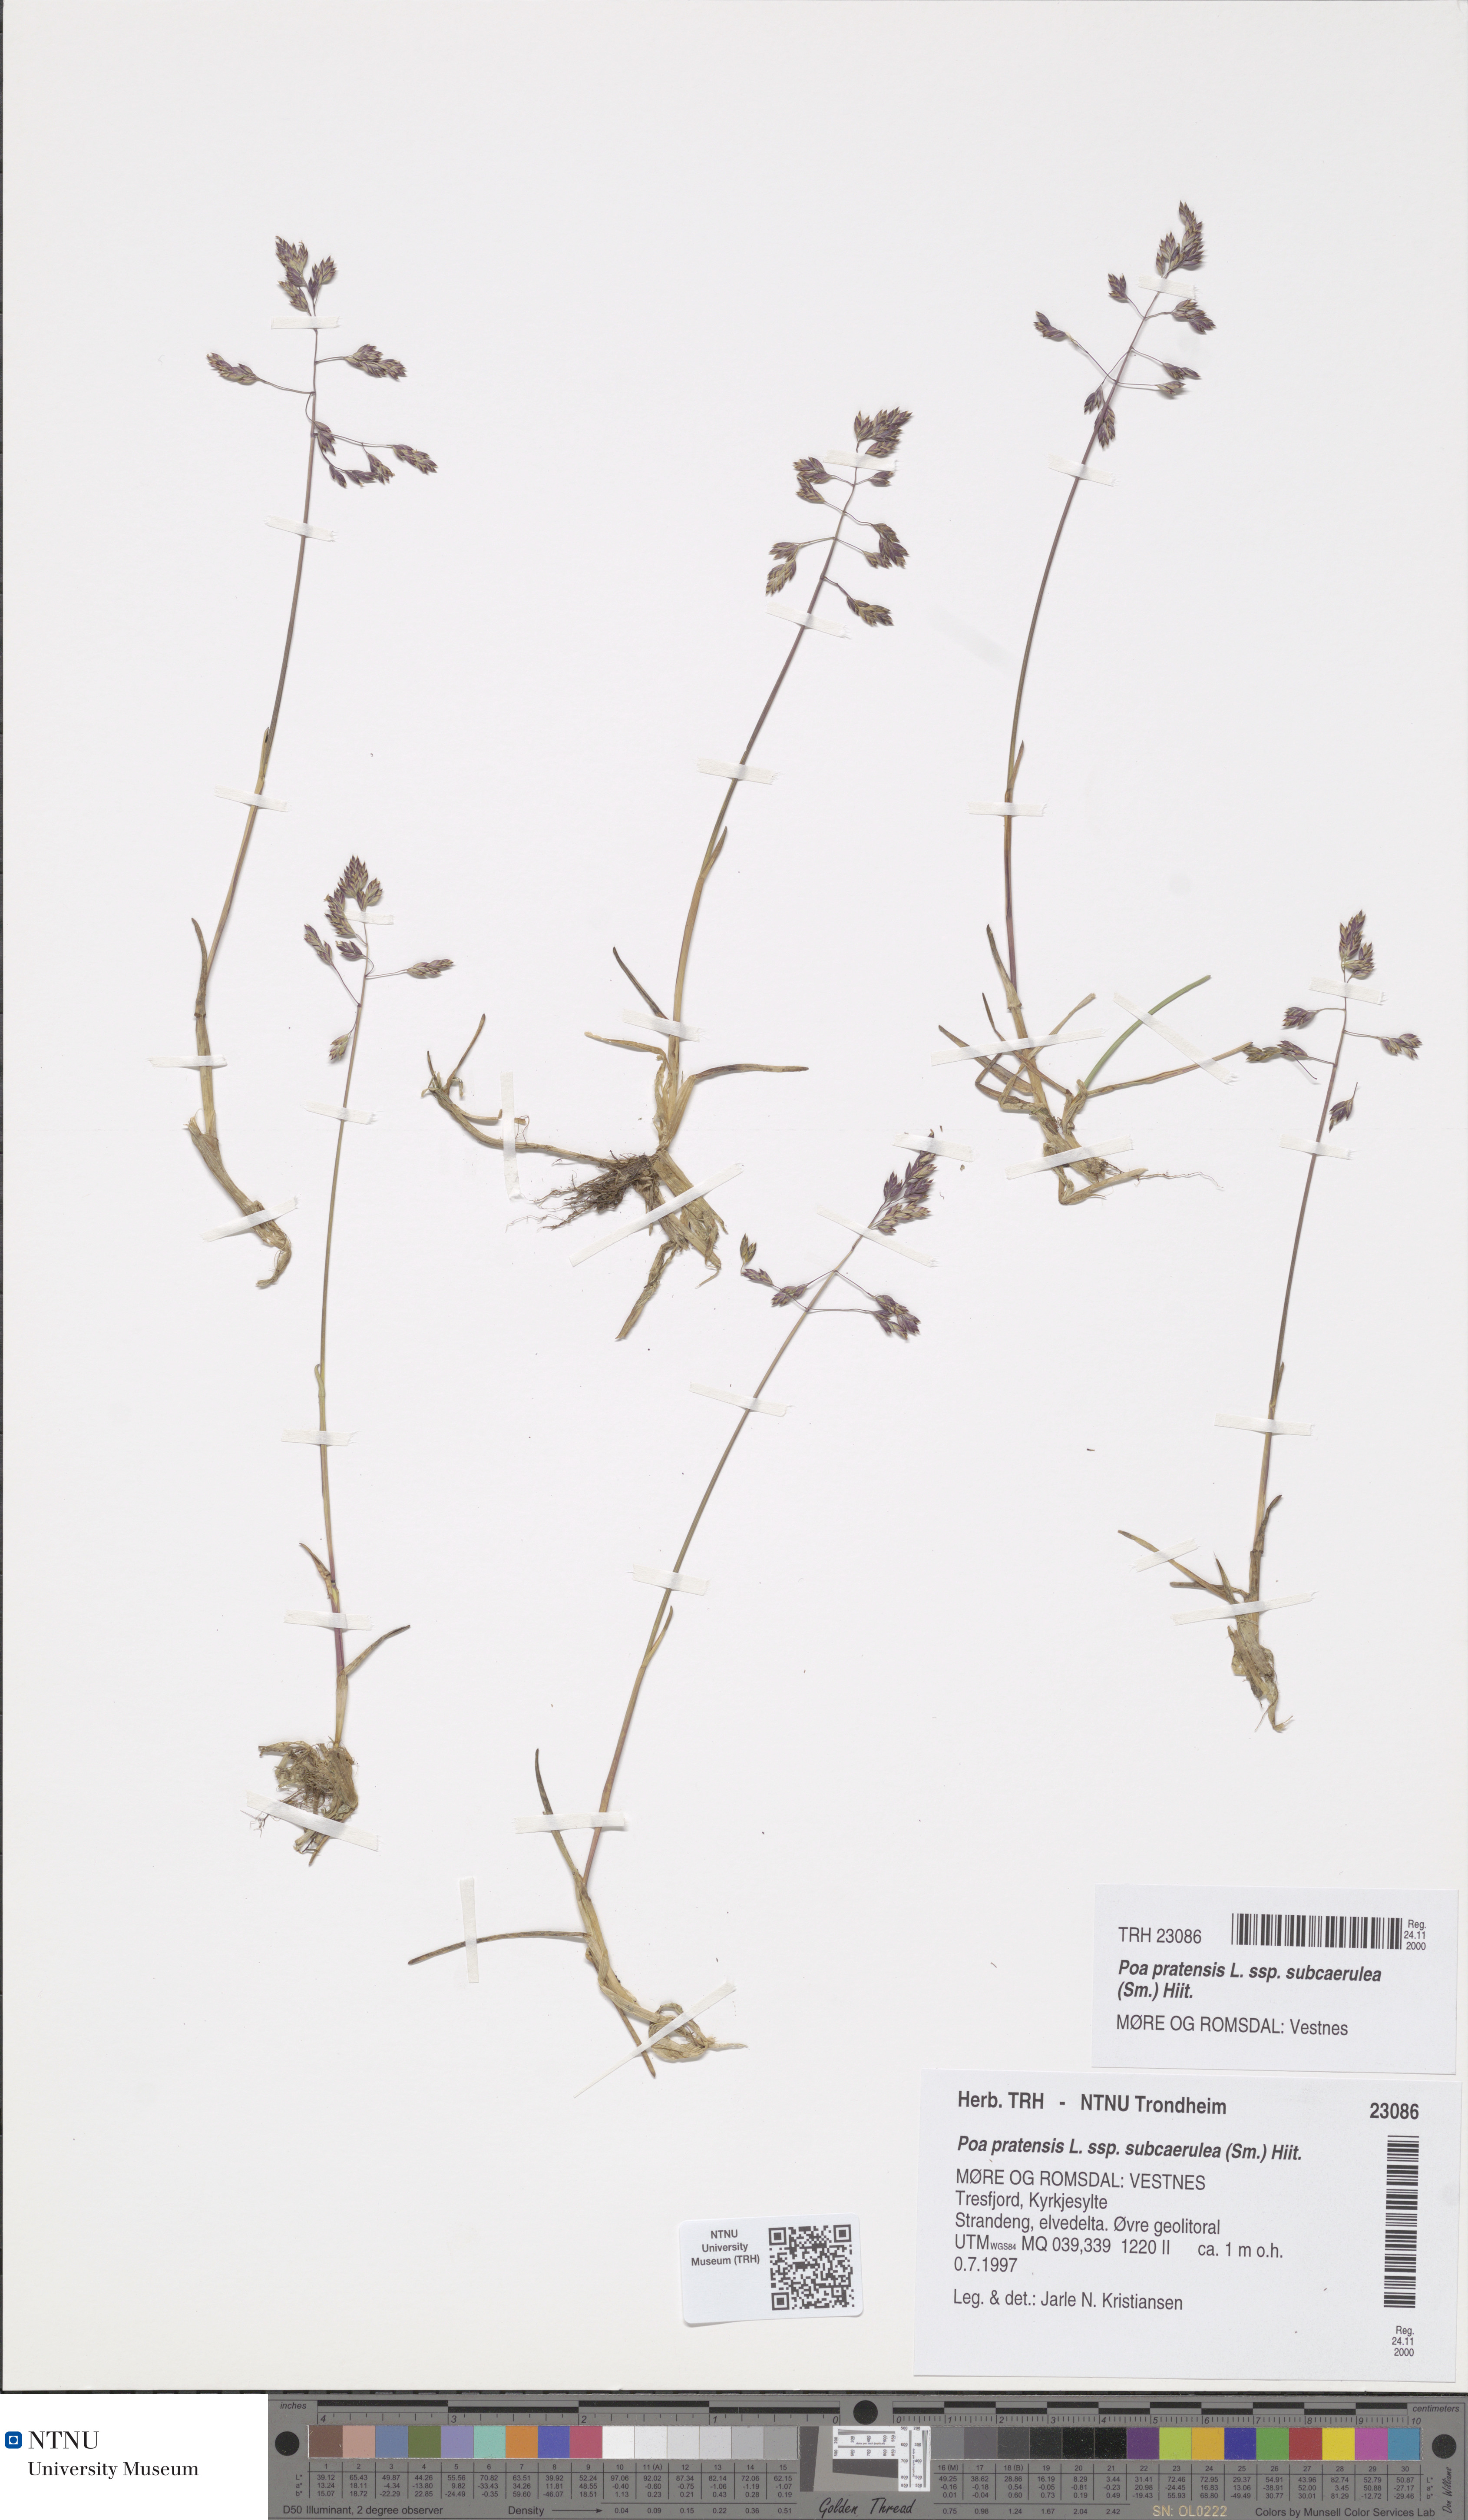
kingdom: Plantae
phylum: Tracheophyta
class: Liliopsida
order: Poales
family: Poaceae
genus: Poa
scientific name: Poa humilis
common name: Spreading meadow-grass
